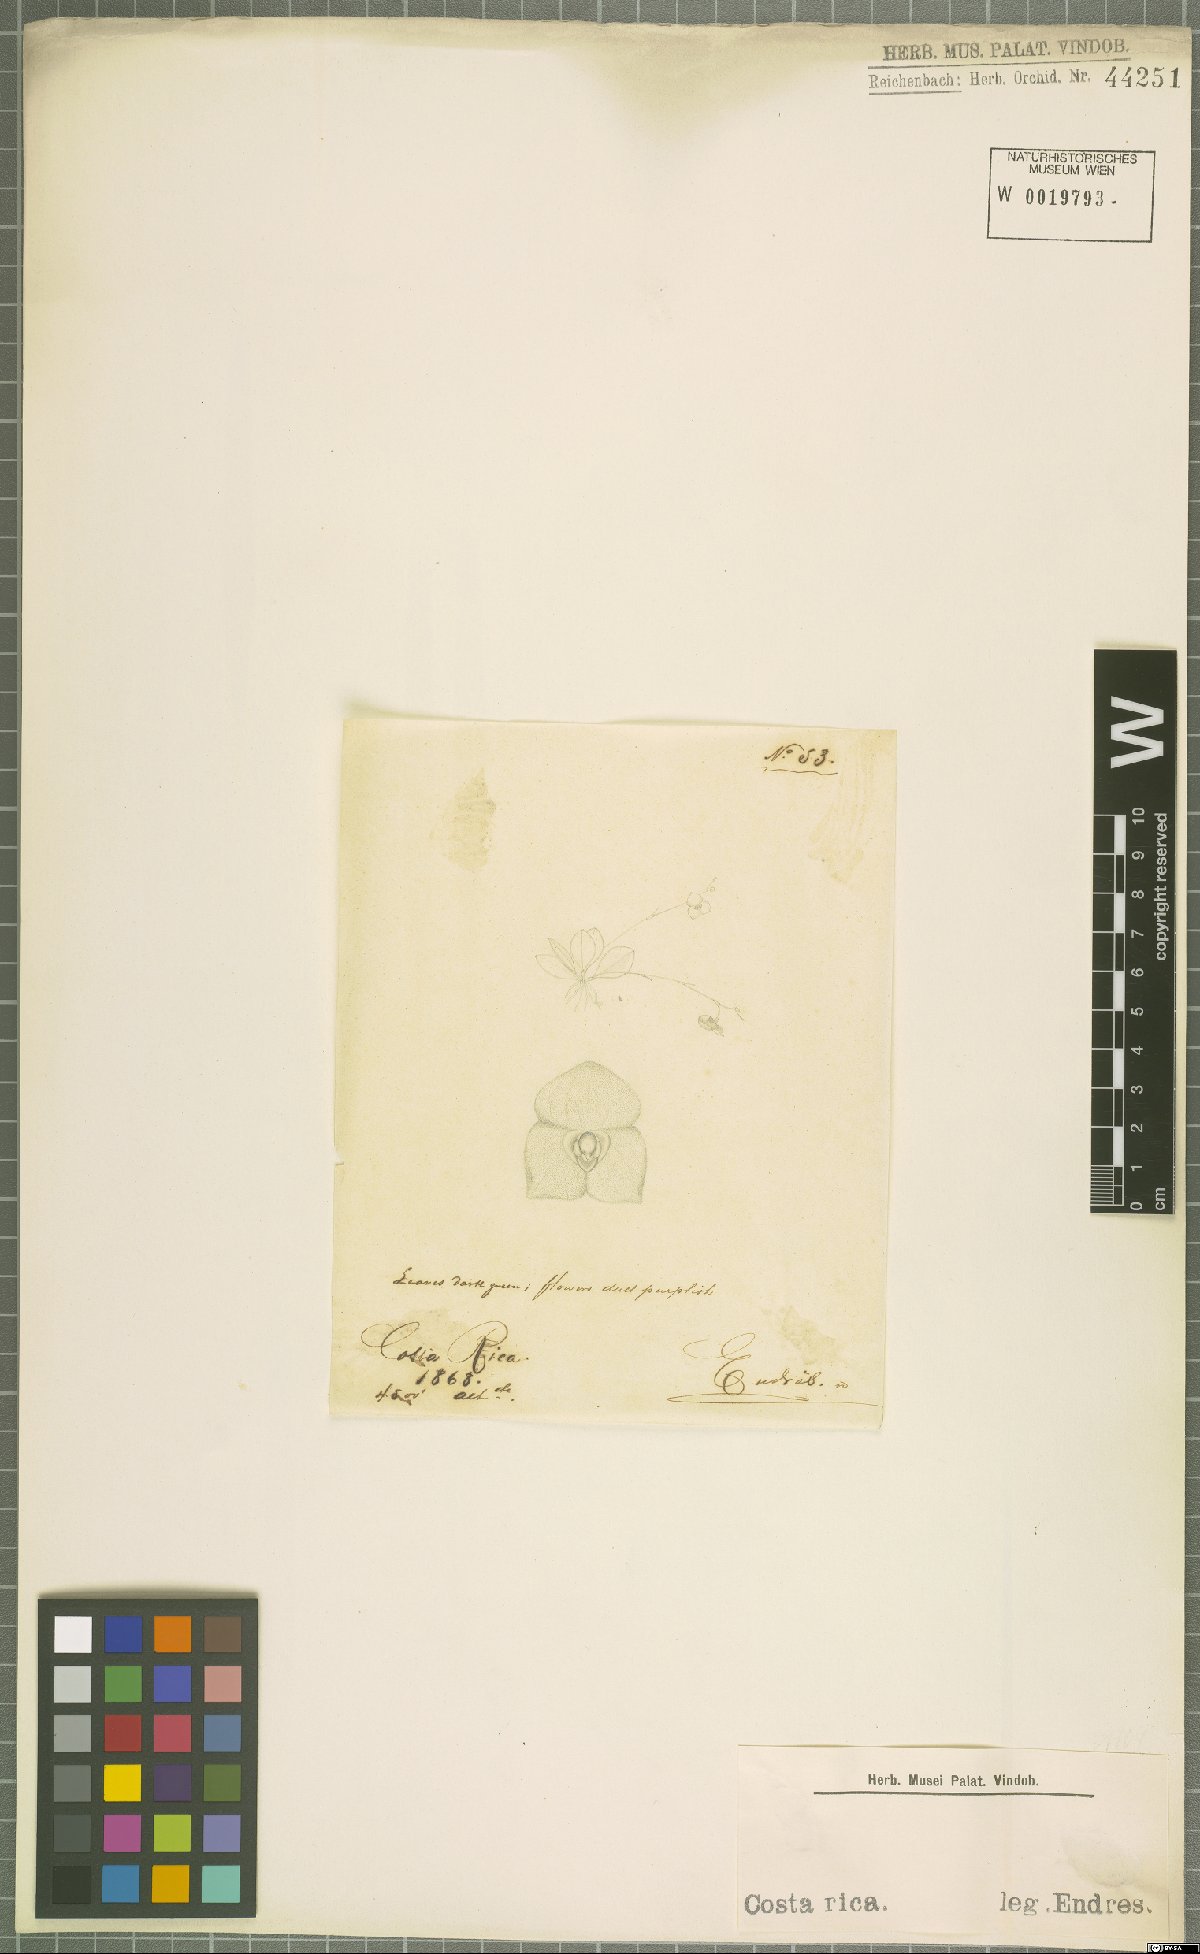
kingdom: Plantae
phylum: Tracheophyta
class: Liliopsida
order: Asparagales
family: Orchidaceae
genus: Stelis
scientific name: Stelis
